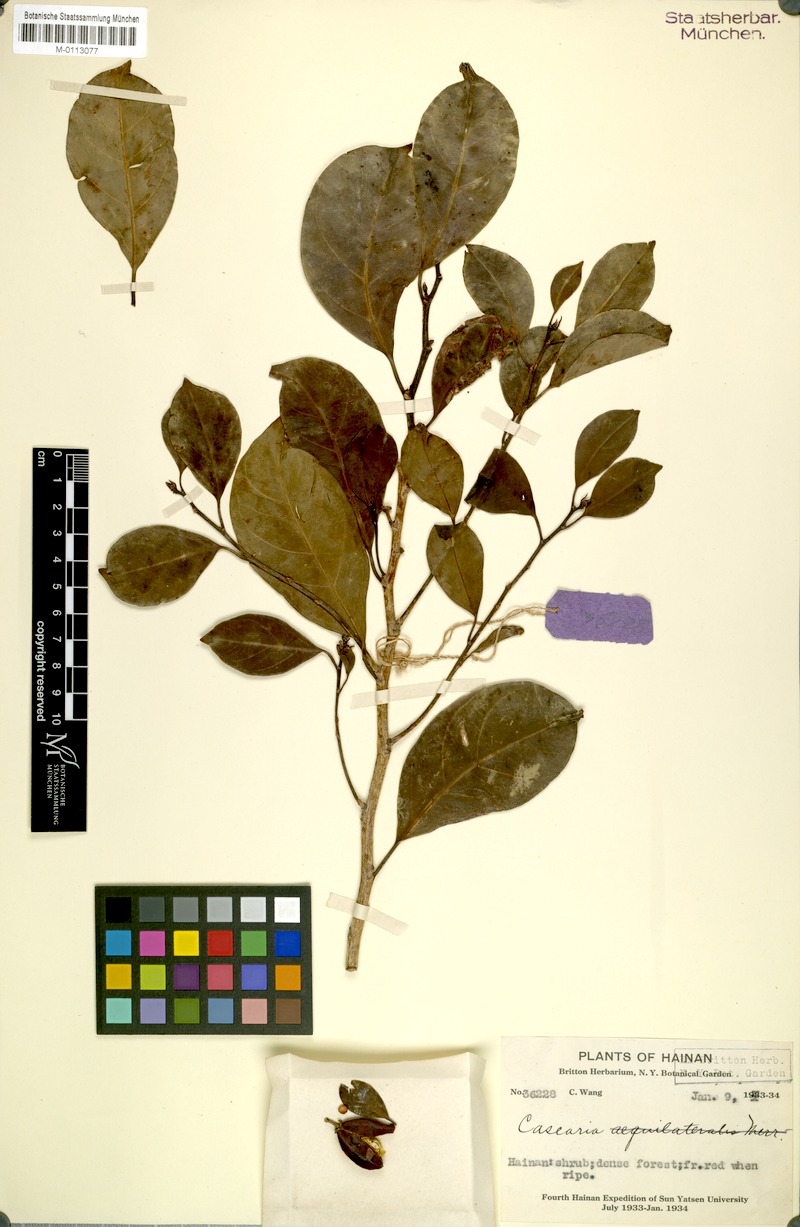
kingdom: Plantae
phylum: Tracheophyta
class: Magnoliopsida
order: Malpighiales
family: Salicaceae
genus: Casearia
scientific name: Casearia membranacea
